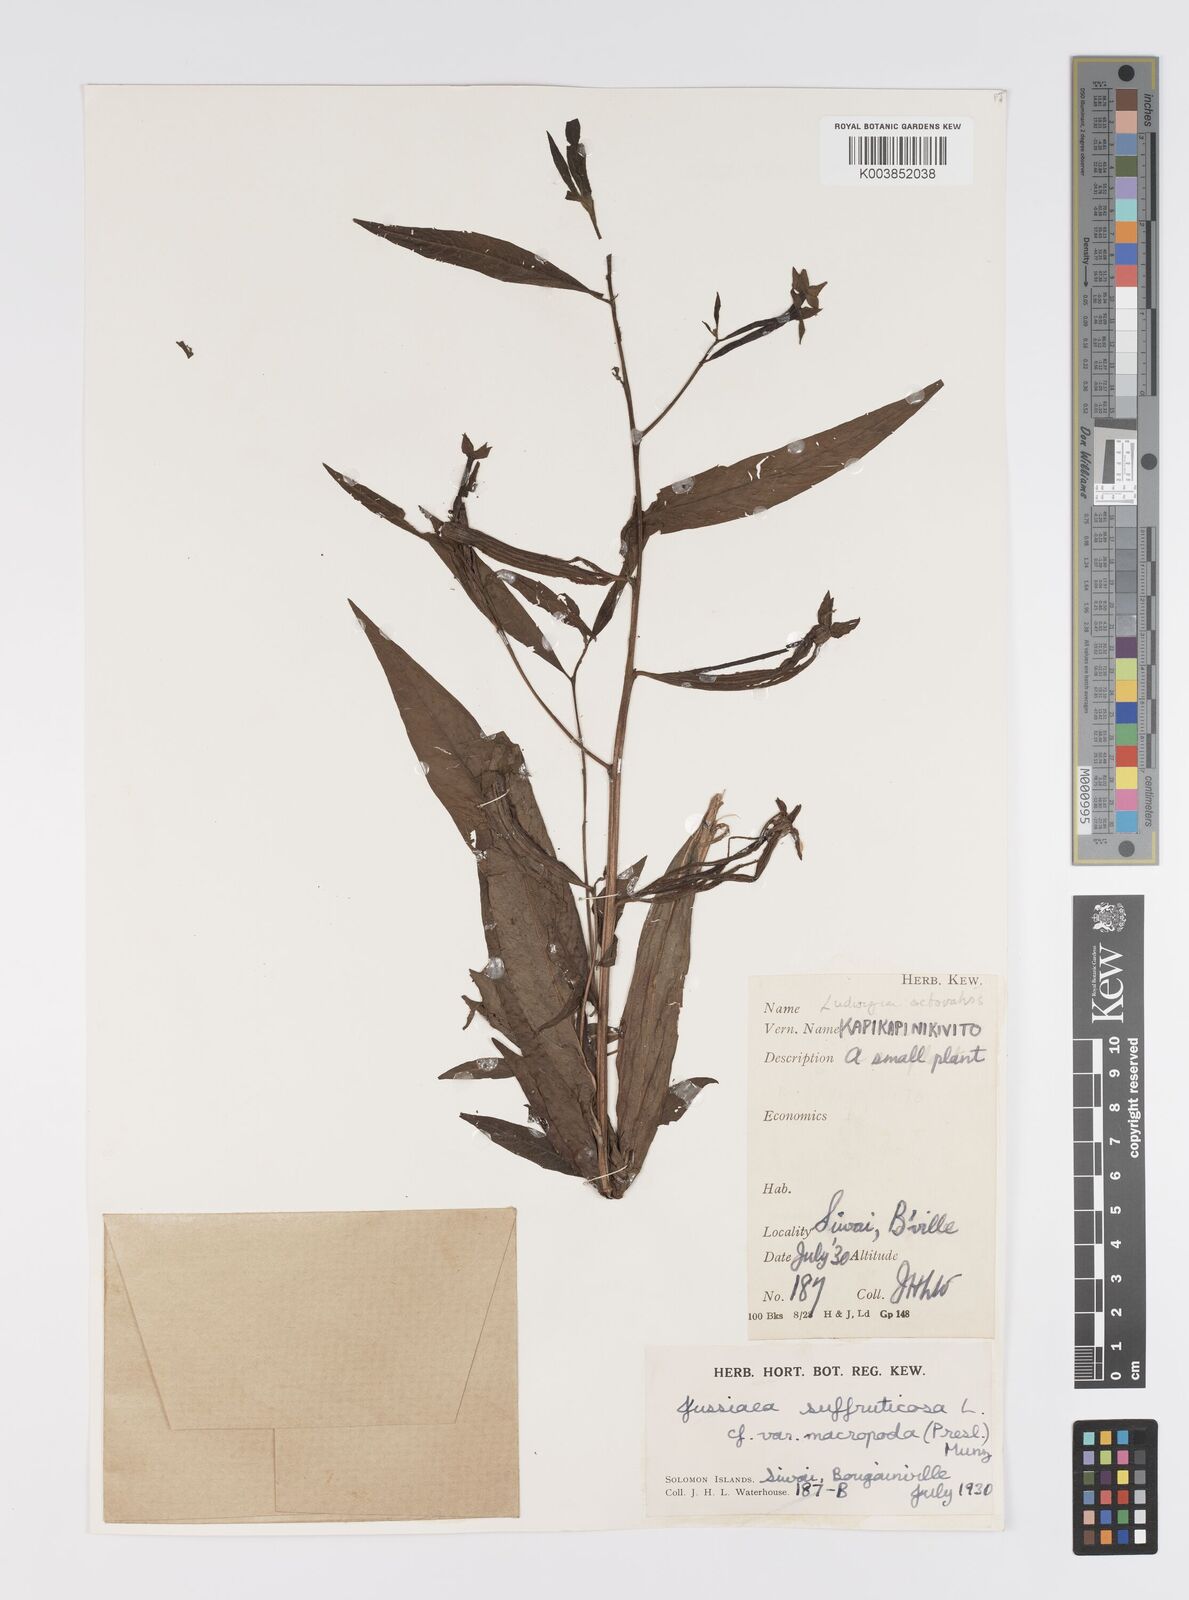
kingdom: Plantae
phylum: Tracheophyta
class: Magnoliopsida
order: Myrtales
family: Onagraceae
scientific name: Onagraceae
